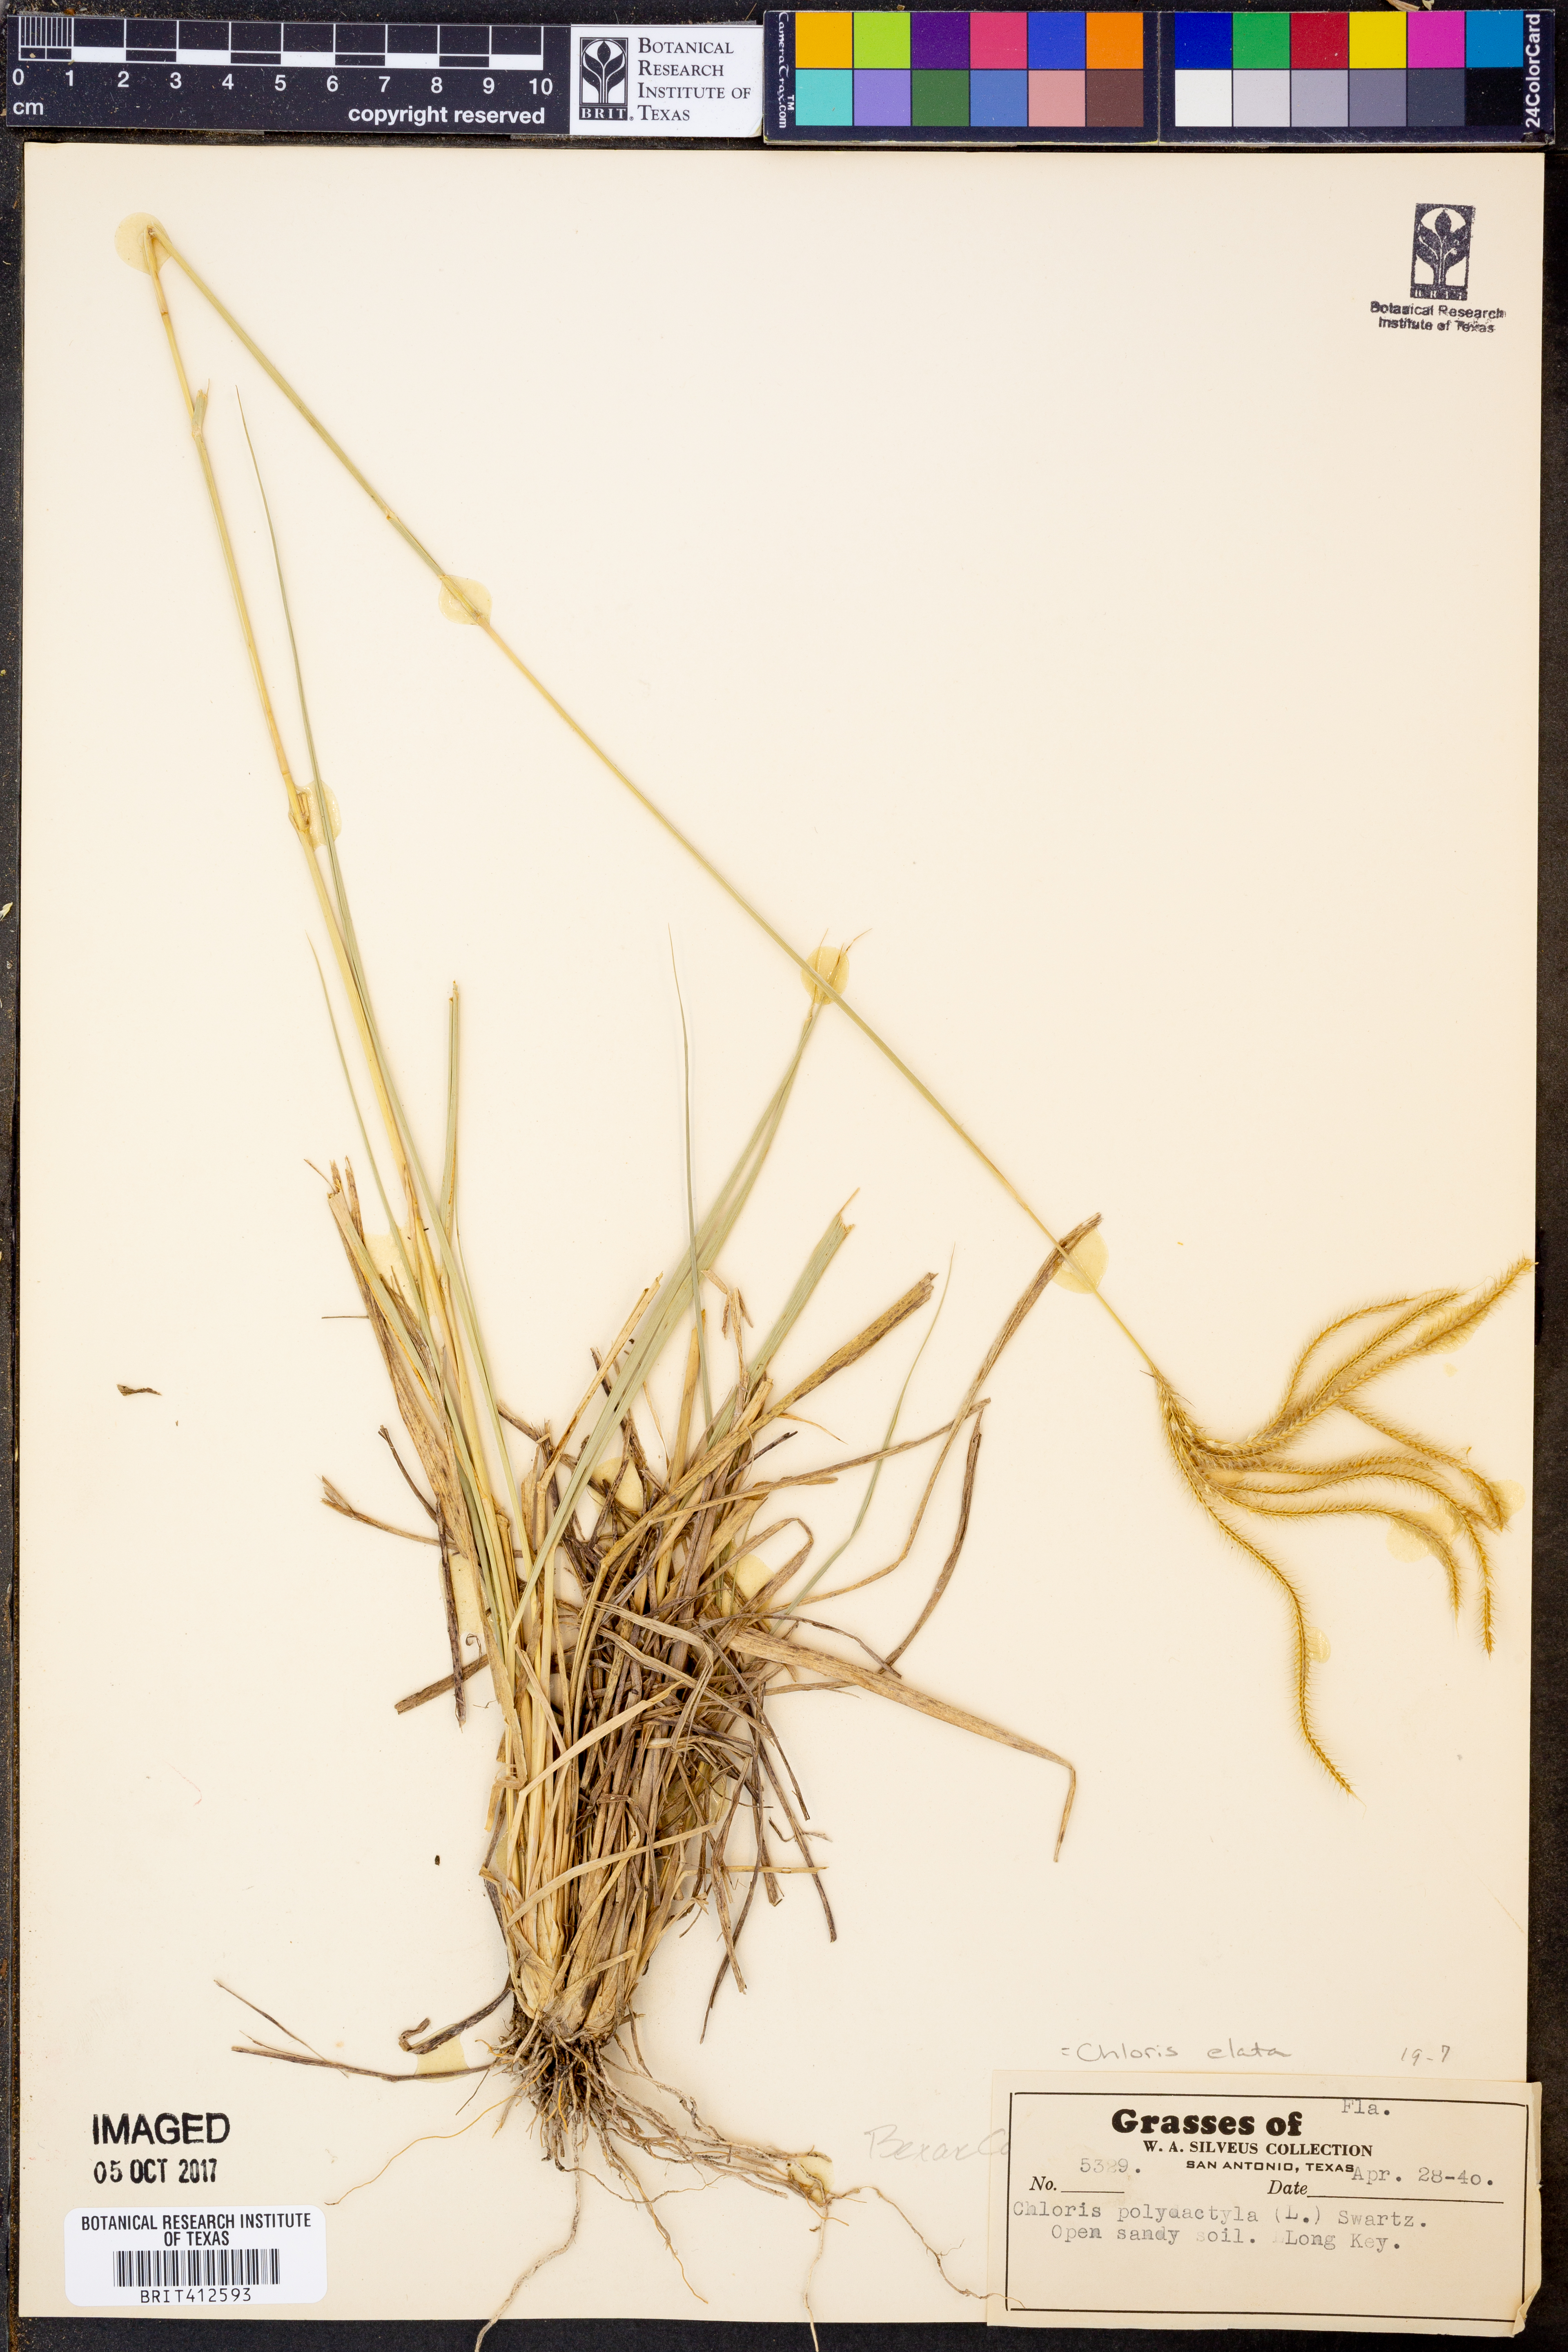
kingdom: Plantae
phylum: Tracheophyta
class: Liliopsida
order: Poales
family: Poaceae
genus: Stapfochloa
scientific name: Stapfochloa elata
